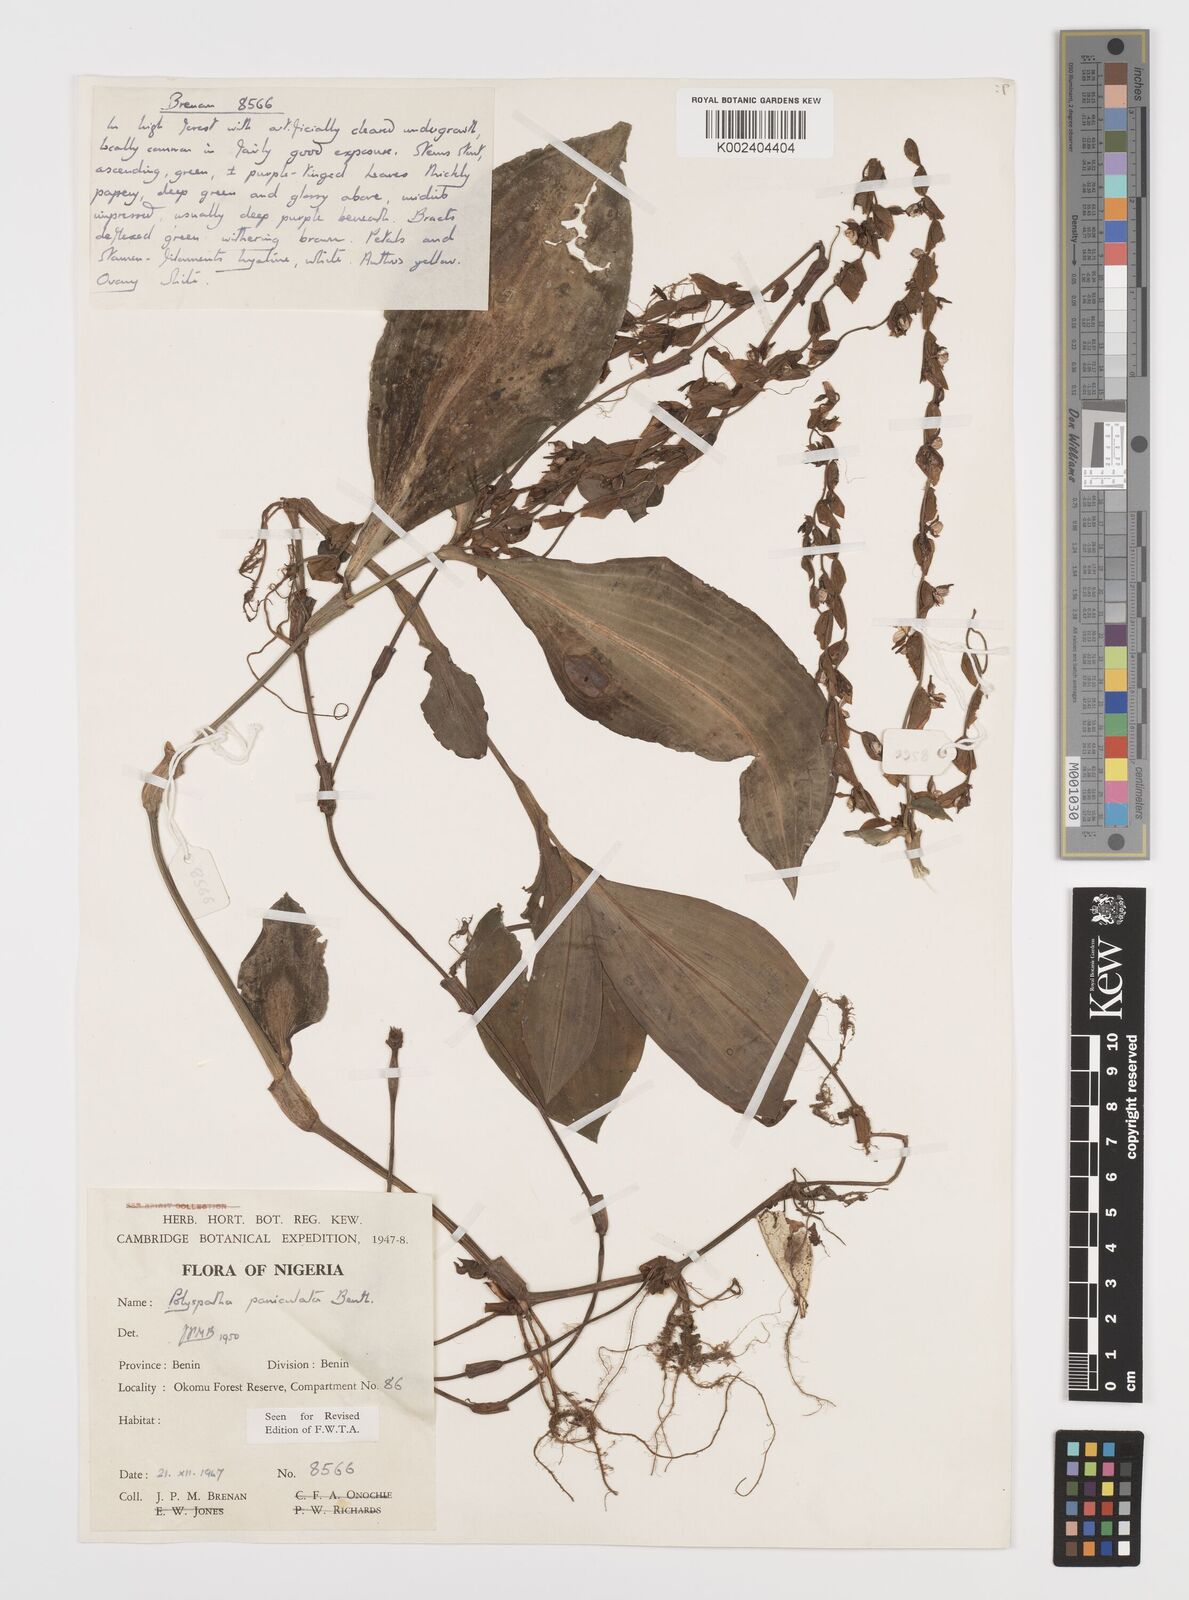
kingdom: Plantae
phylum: Tracheophyta
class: Liliopsida
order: Commelinales
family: Commelinaceae
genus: Polyspatha
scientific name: Polyspatha paniculata
